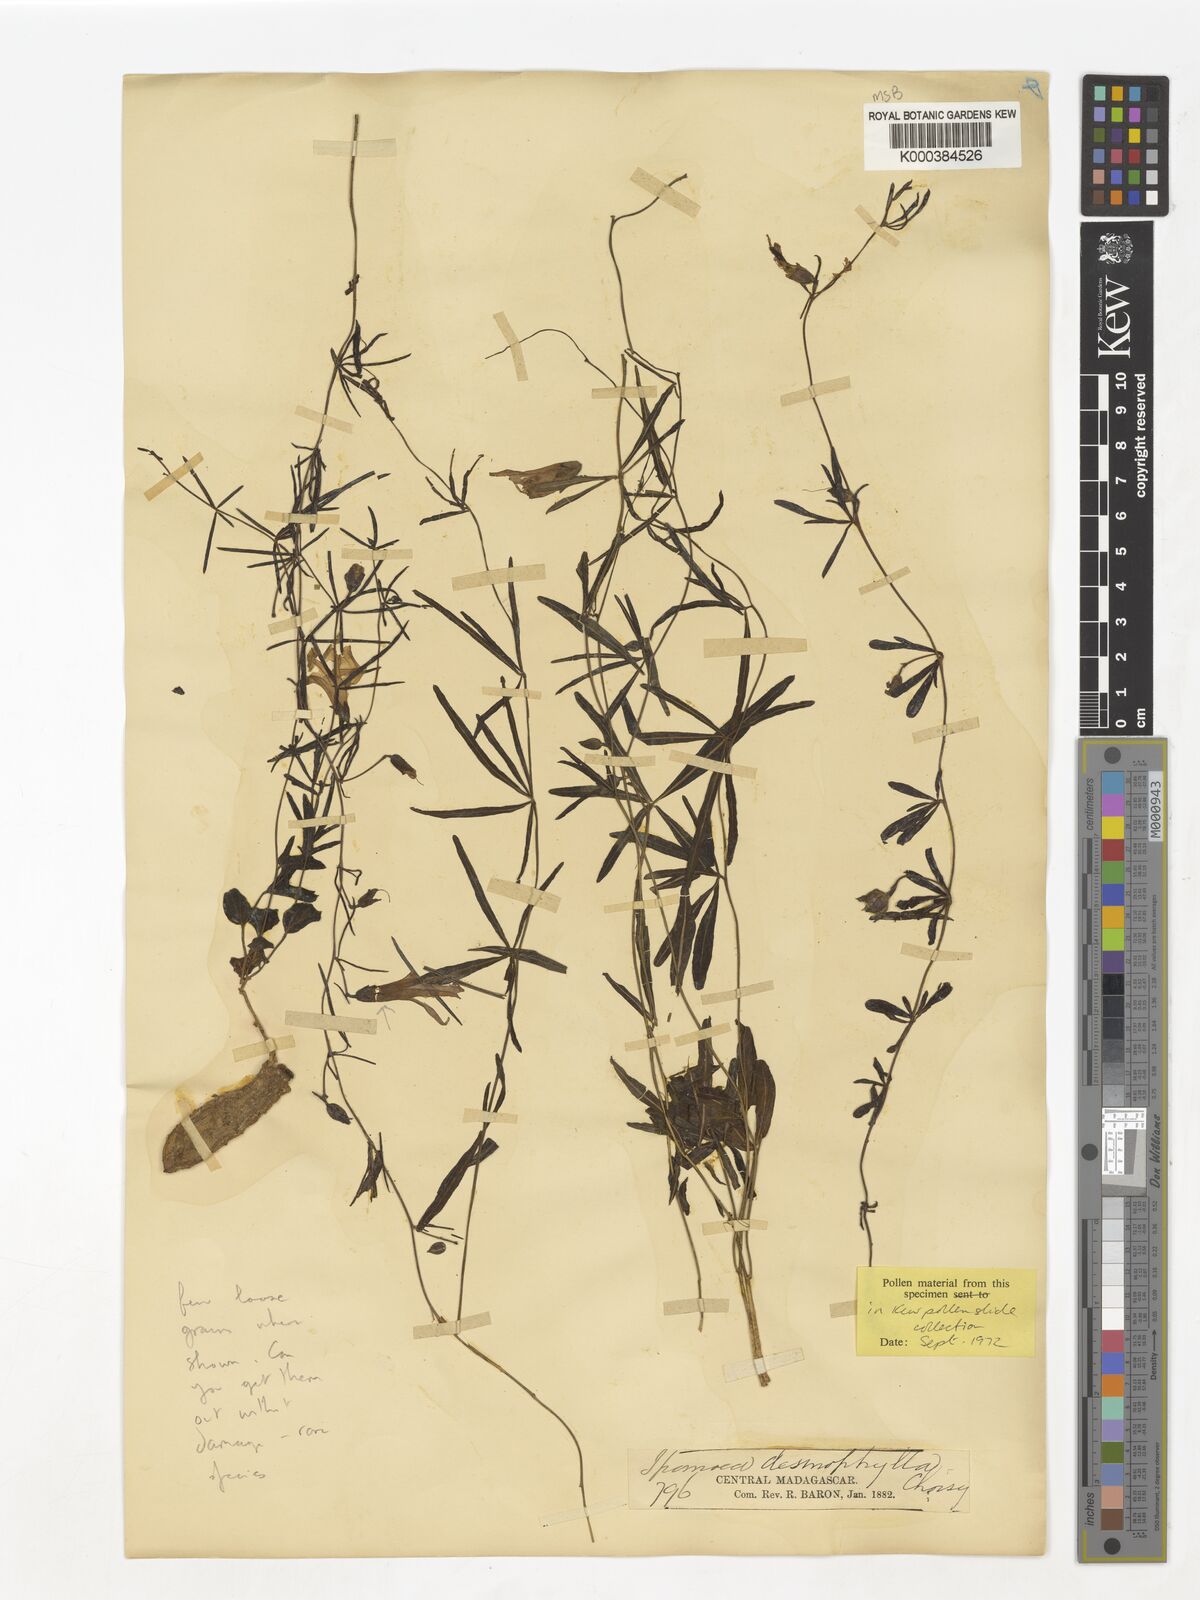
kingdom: Plantae
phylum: Tracheophyta
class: Magnoliopsida
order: Solanales
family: Convolvulaceae
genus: Ipomoea
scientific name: Ipomoea desmophylla
